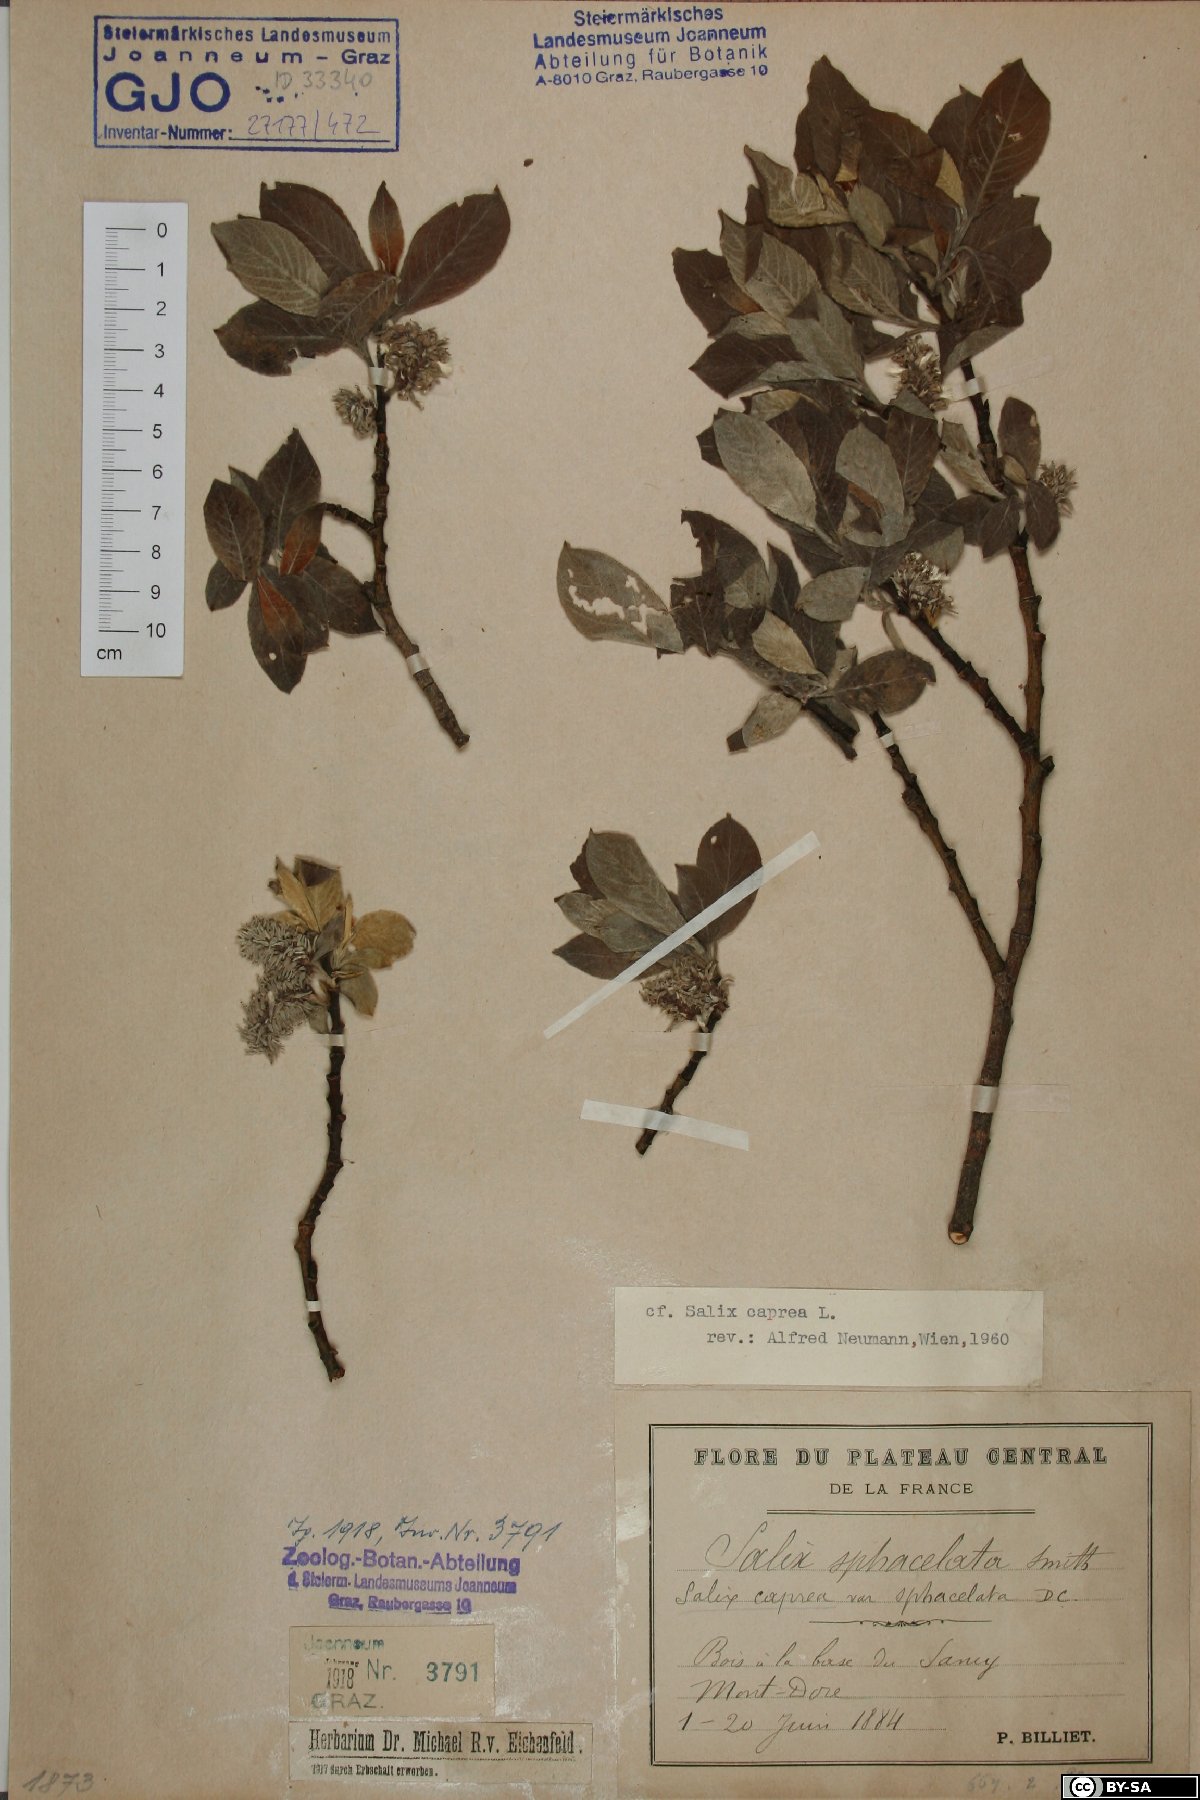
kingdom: Plantae
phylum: Tracheophyta
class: Magnoliopsida
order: Malpighiales
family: Salicaceae
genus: Salix
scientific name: Salix caprea
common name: Goat willow
